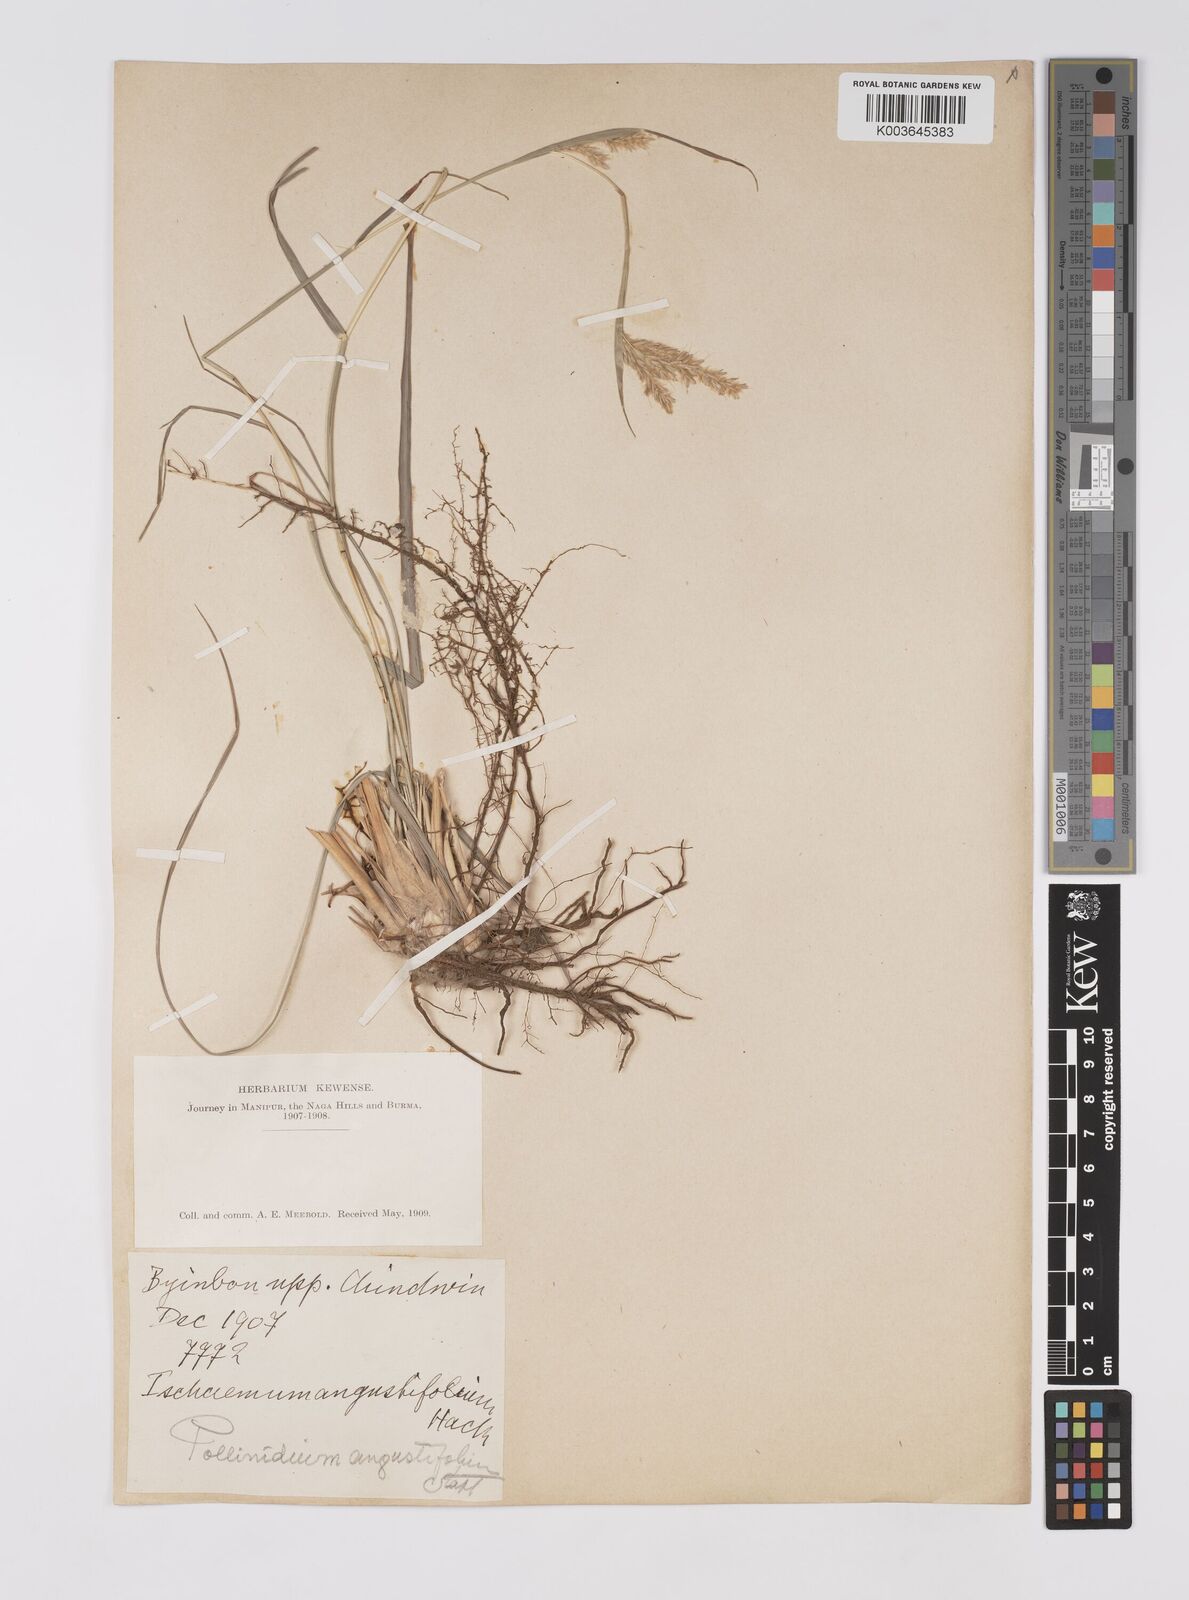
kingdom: Plantae
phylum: Tracheophyta
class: Liliopsida
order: Poales
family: Poaceae
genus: Eulaliopsis
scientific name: Eulaliopsis binata
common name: Baib grass
